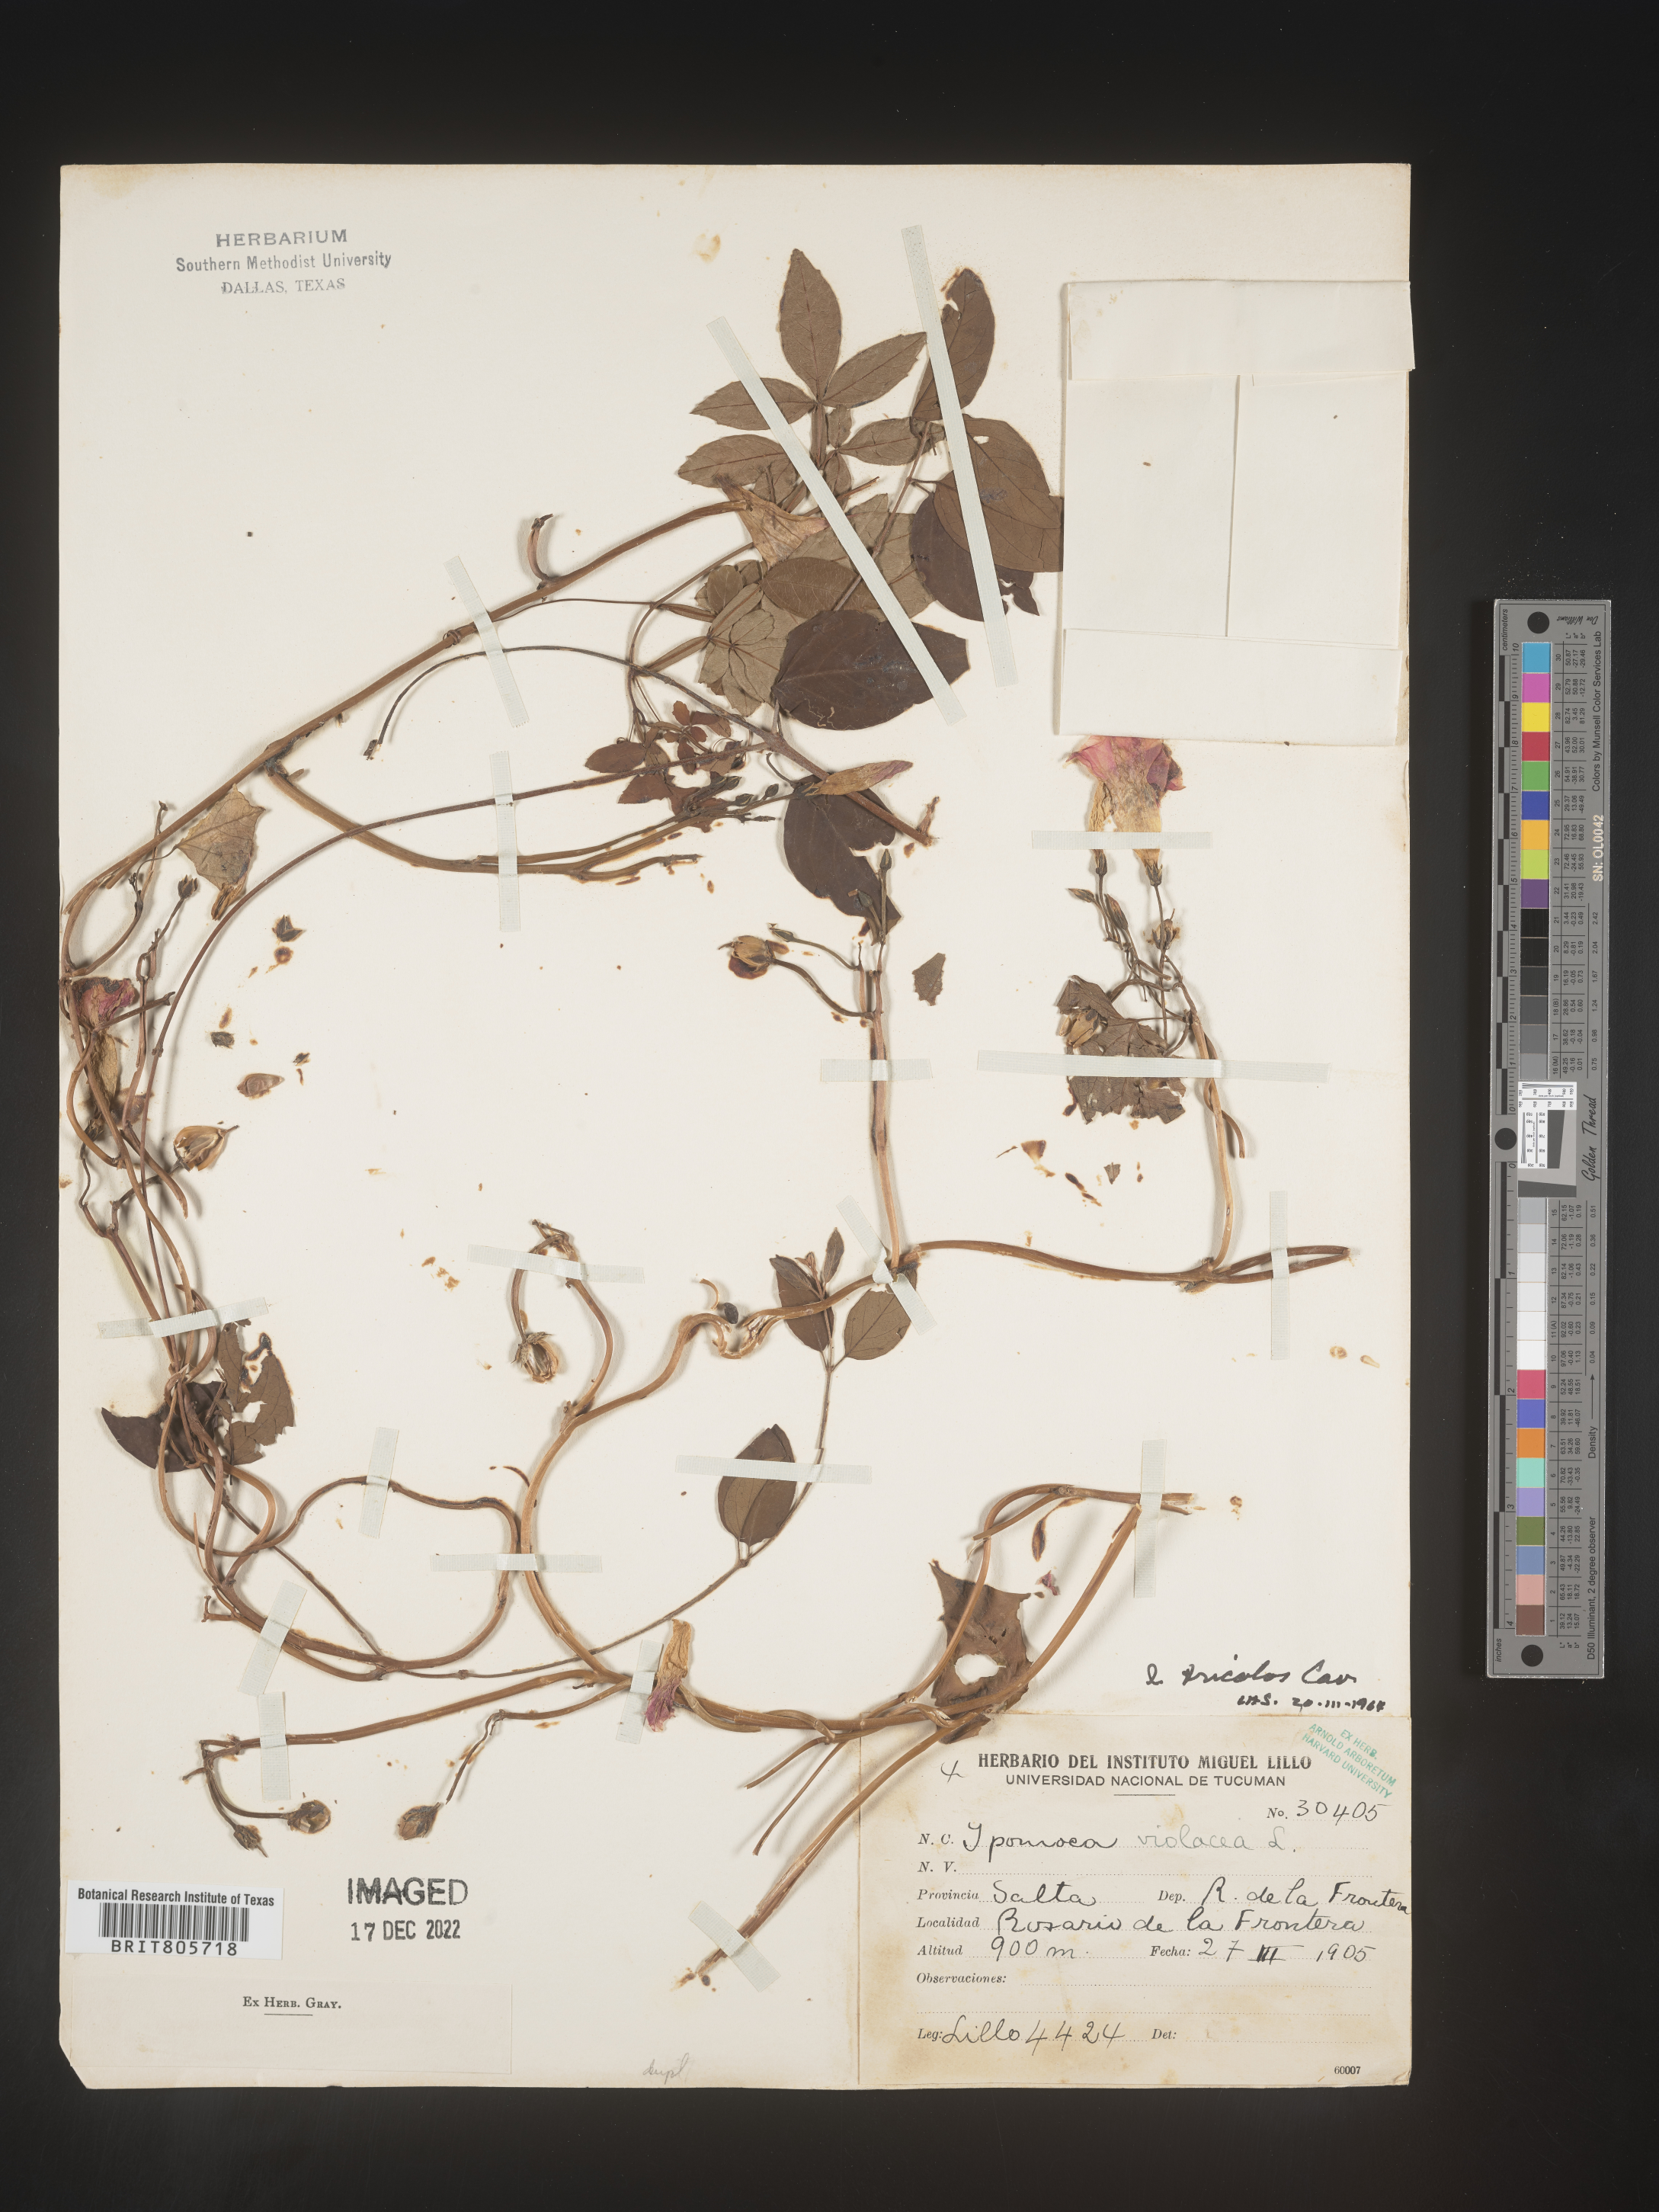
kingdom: Plantae
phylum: Tracheophyta
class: Magnoliopsida
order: Solanales
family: Convolvulaceae
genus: Ipomoea
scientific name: Ipomoea
